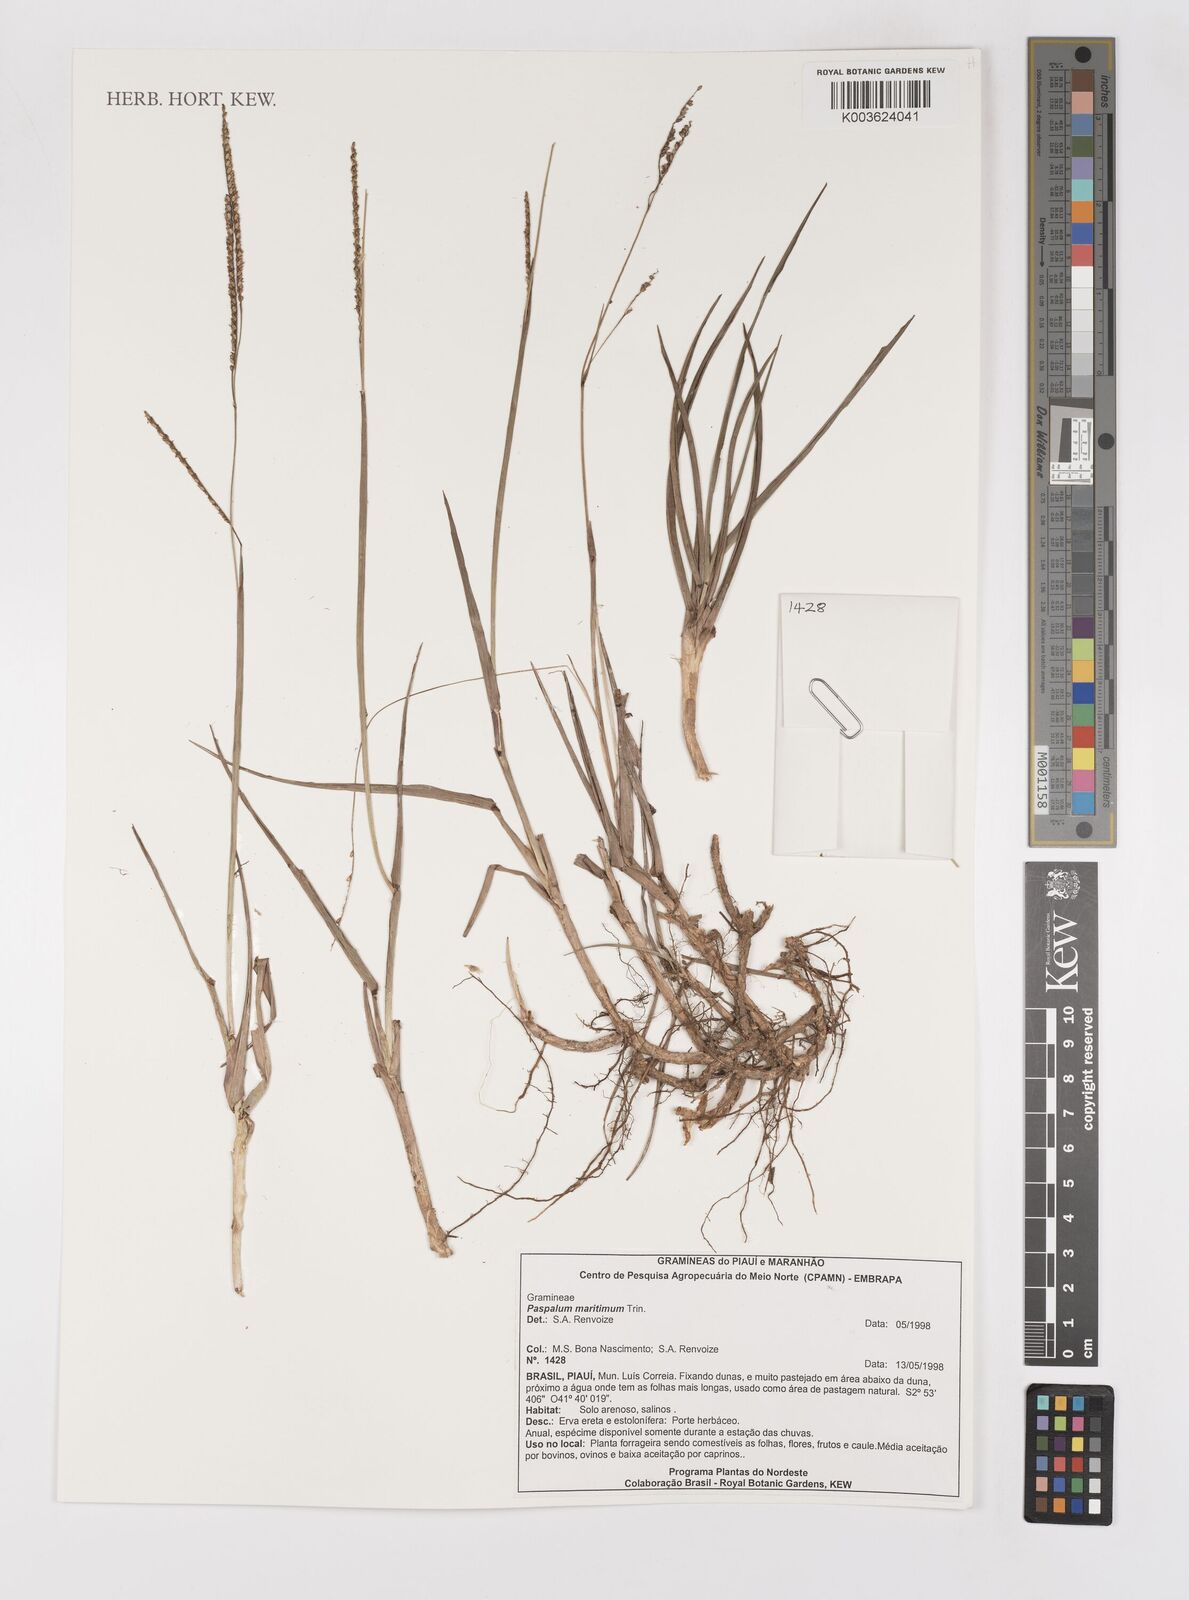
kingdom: Plantae
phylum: Tracheophyta
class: Liliopsida
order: Poales
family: Poaceae
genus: Paspalum
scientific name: Paspalum maritimum
